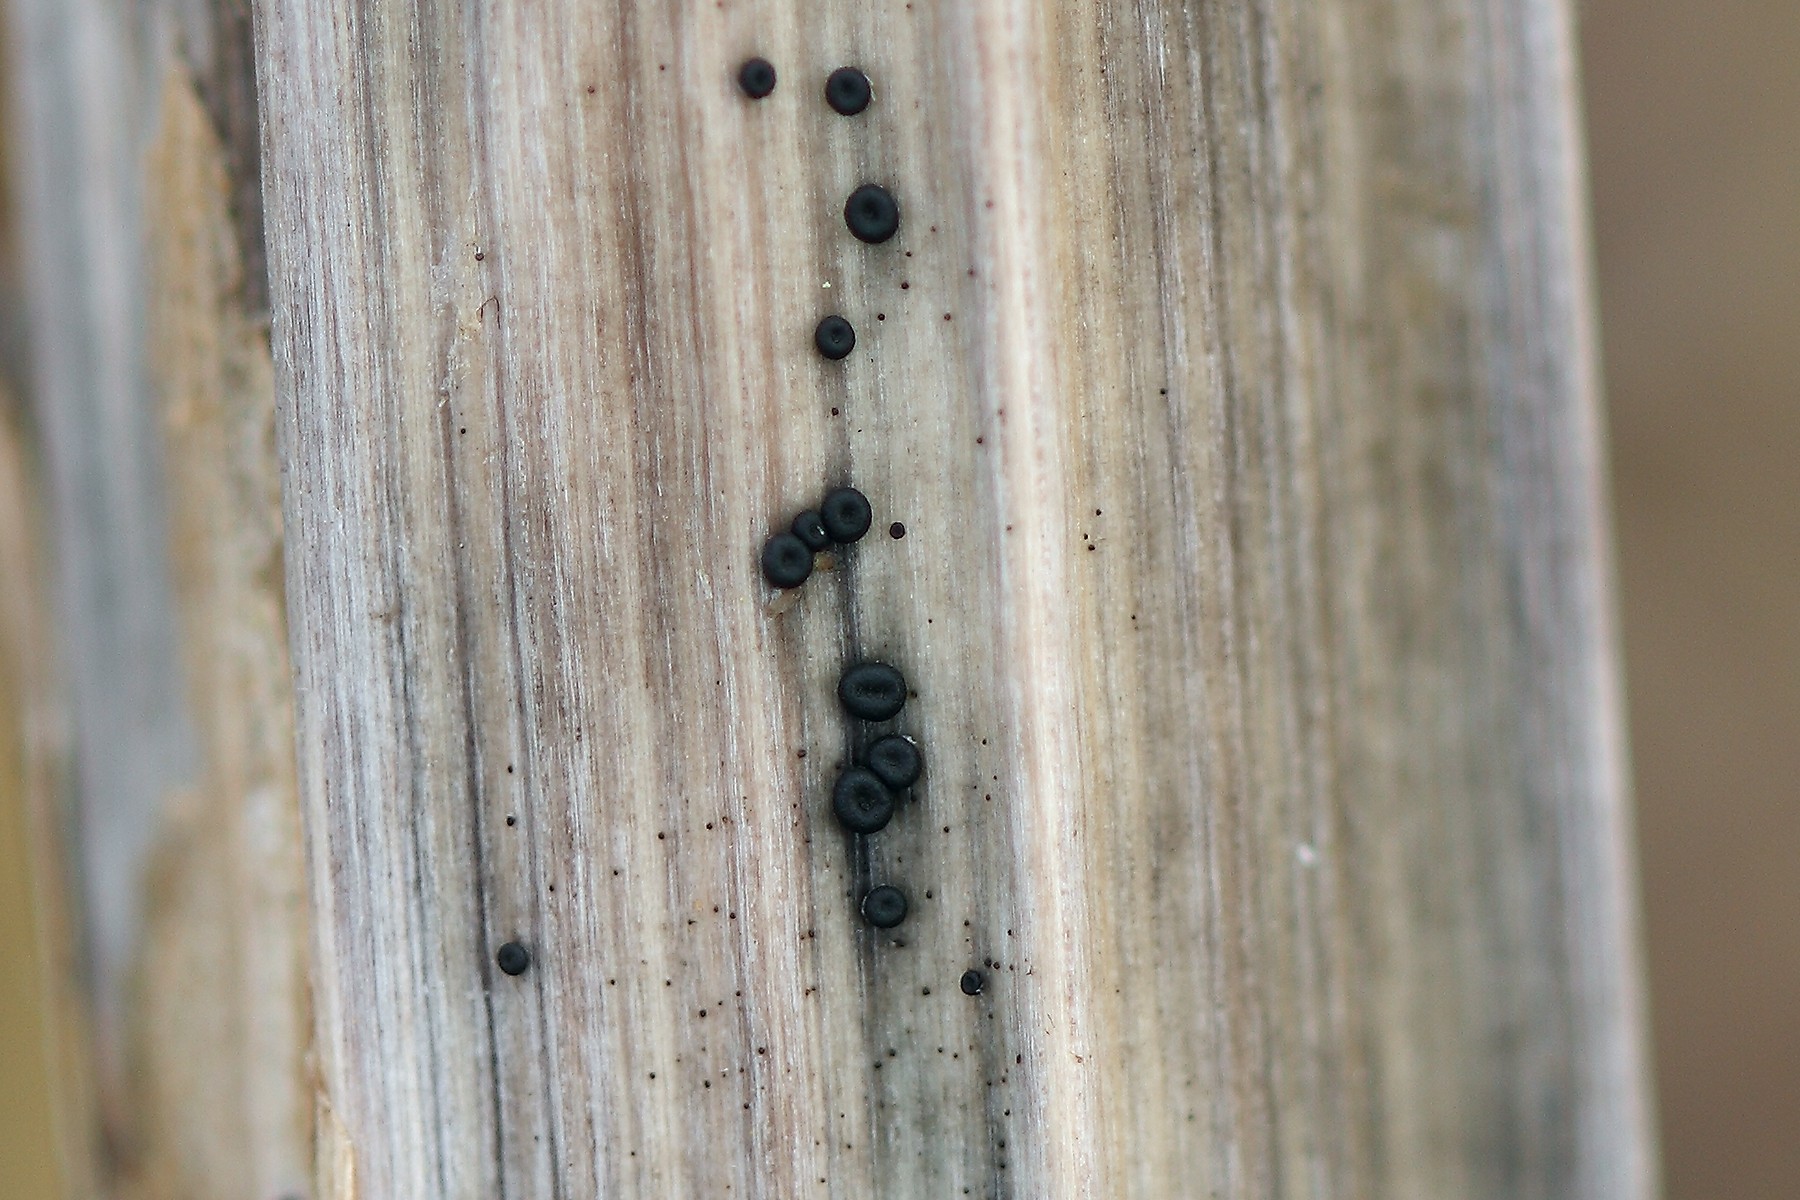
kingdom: Fungi
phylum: Ascomycota
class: Leotiomycetes
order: Helotiales
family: Heterosphaeriaceae
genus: Heterosphaeria
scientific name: Heterosphaeria
